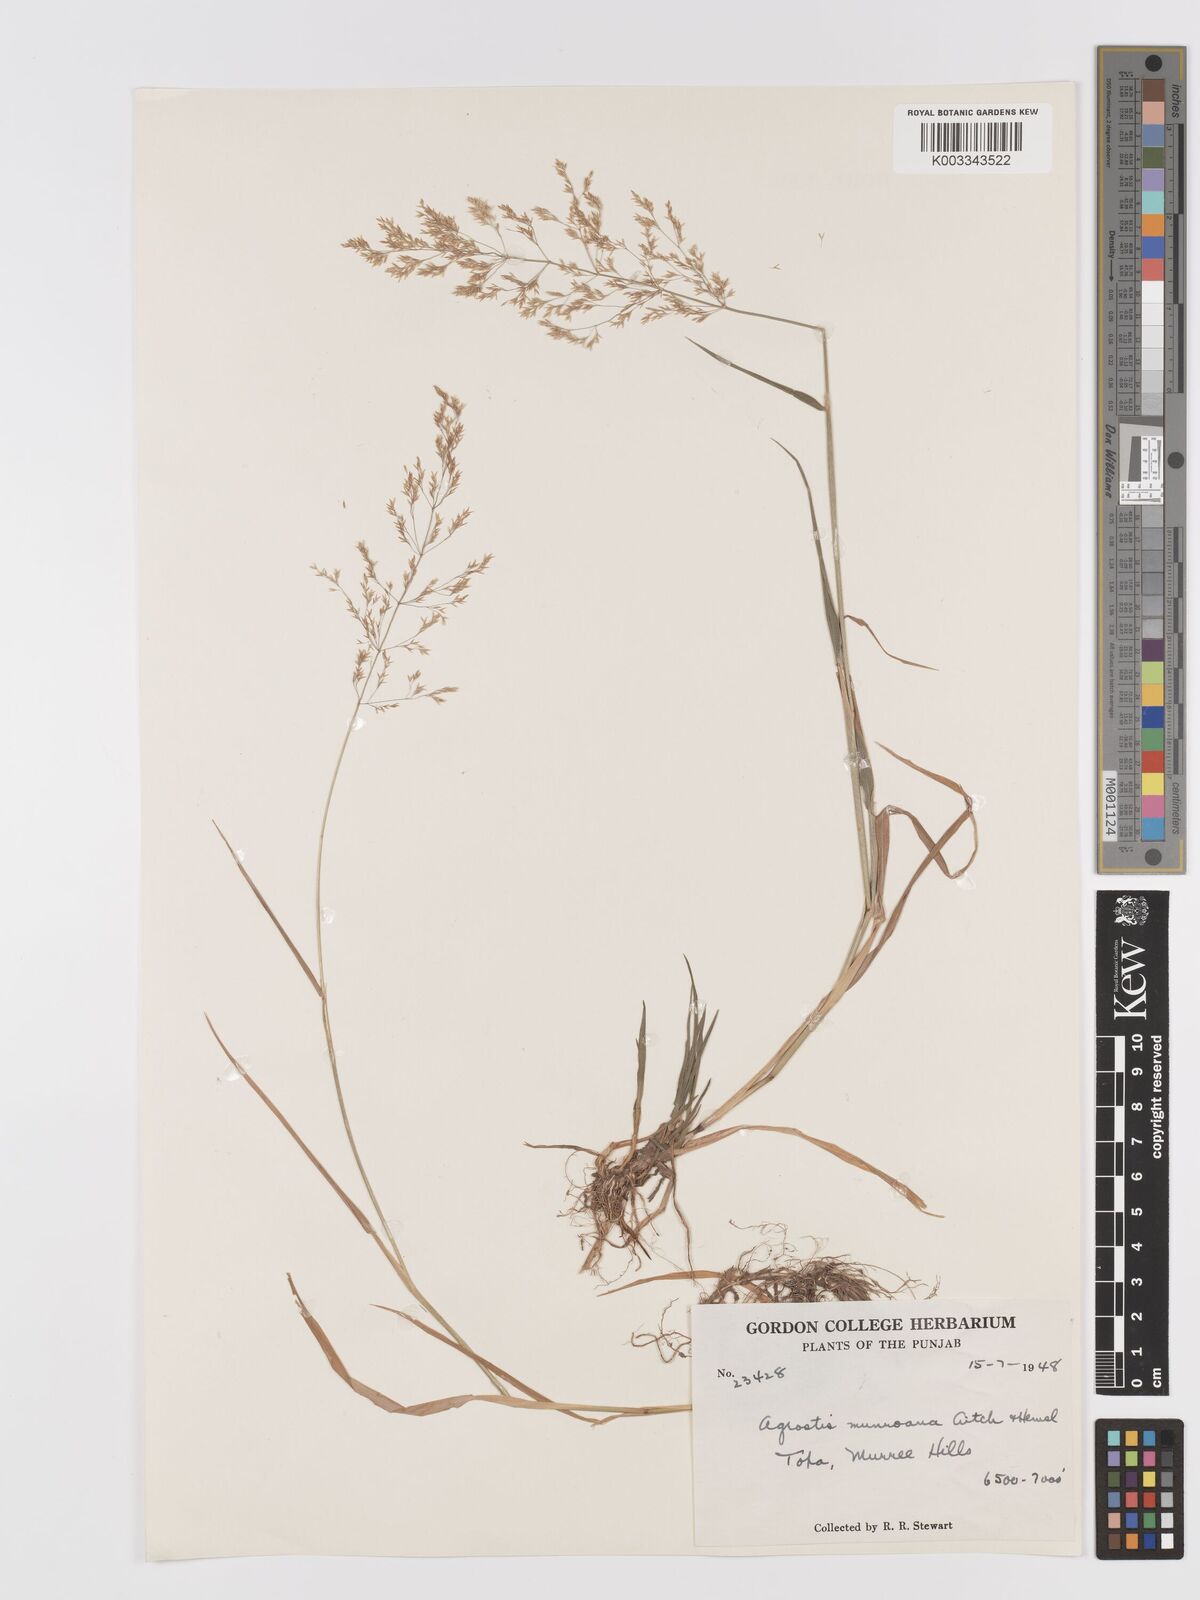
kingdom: Plantae
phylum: Tracheophyta
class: Liliopsida
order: Poales
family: Poaceae
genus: Agrostis
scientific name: Agrostis gigantea
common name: Black bent
